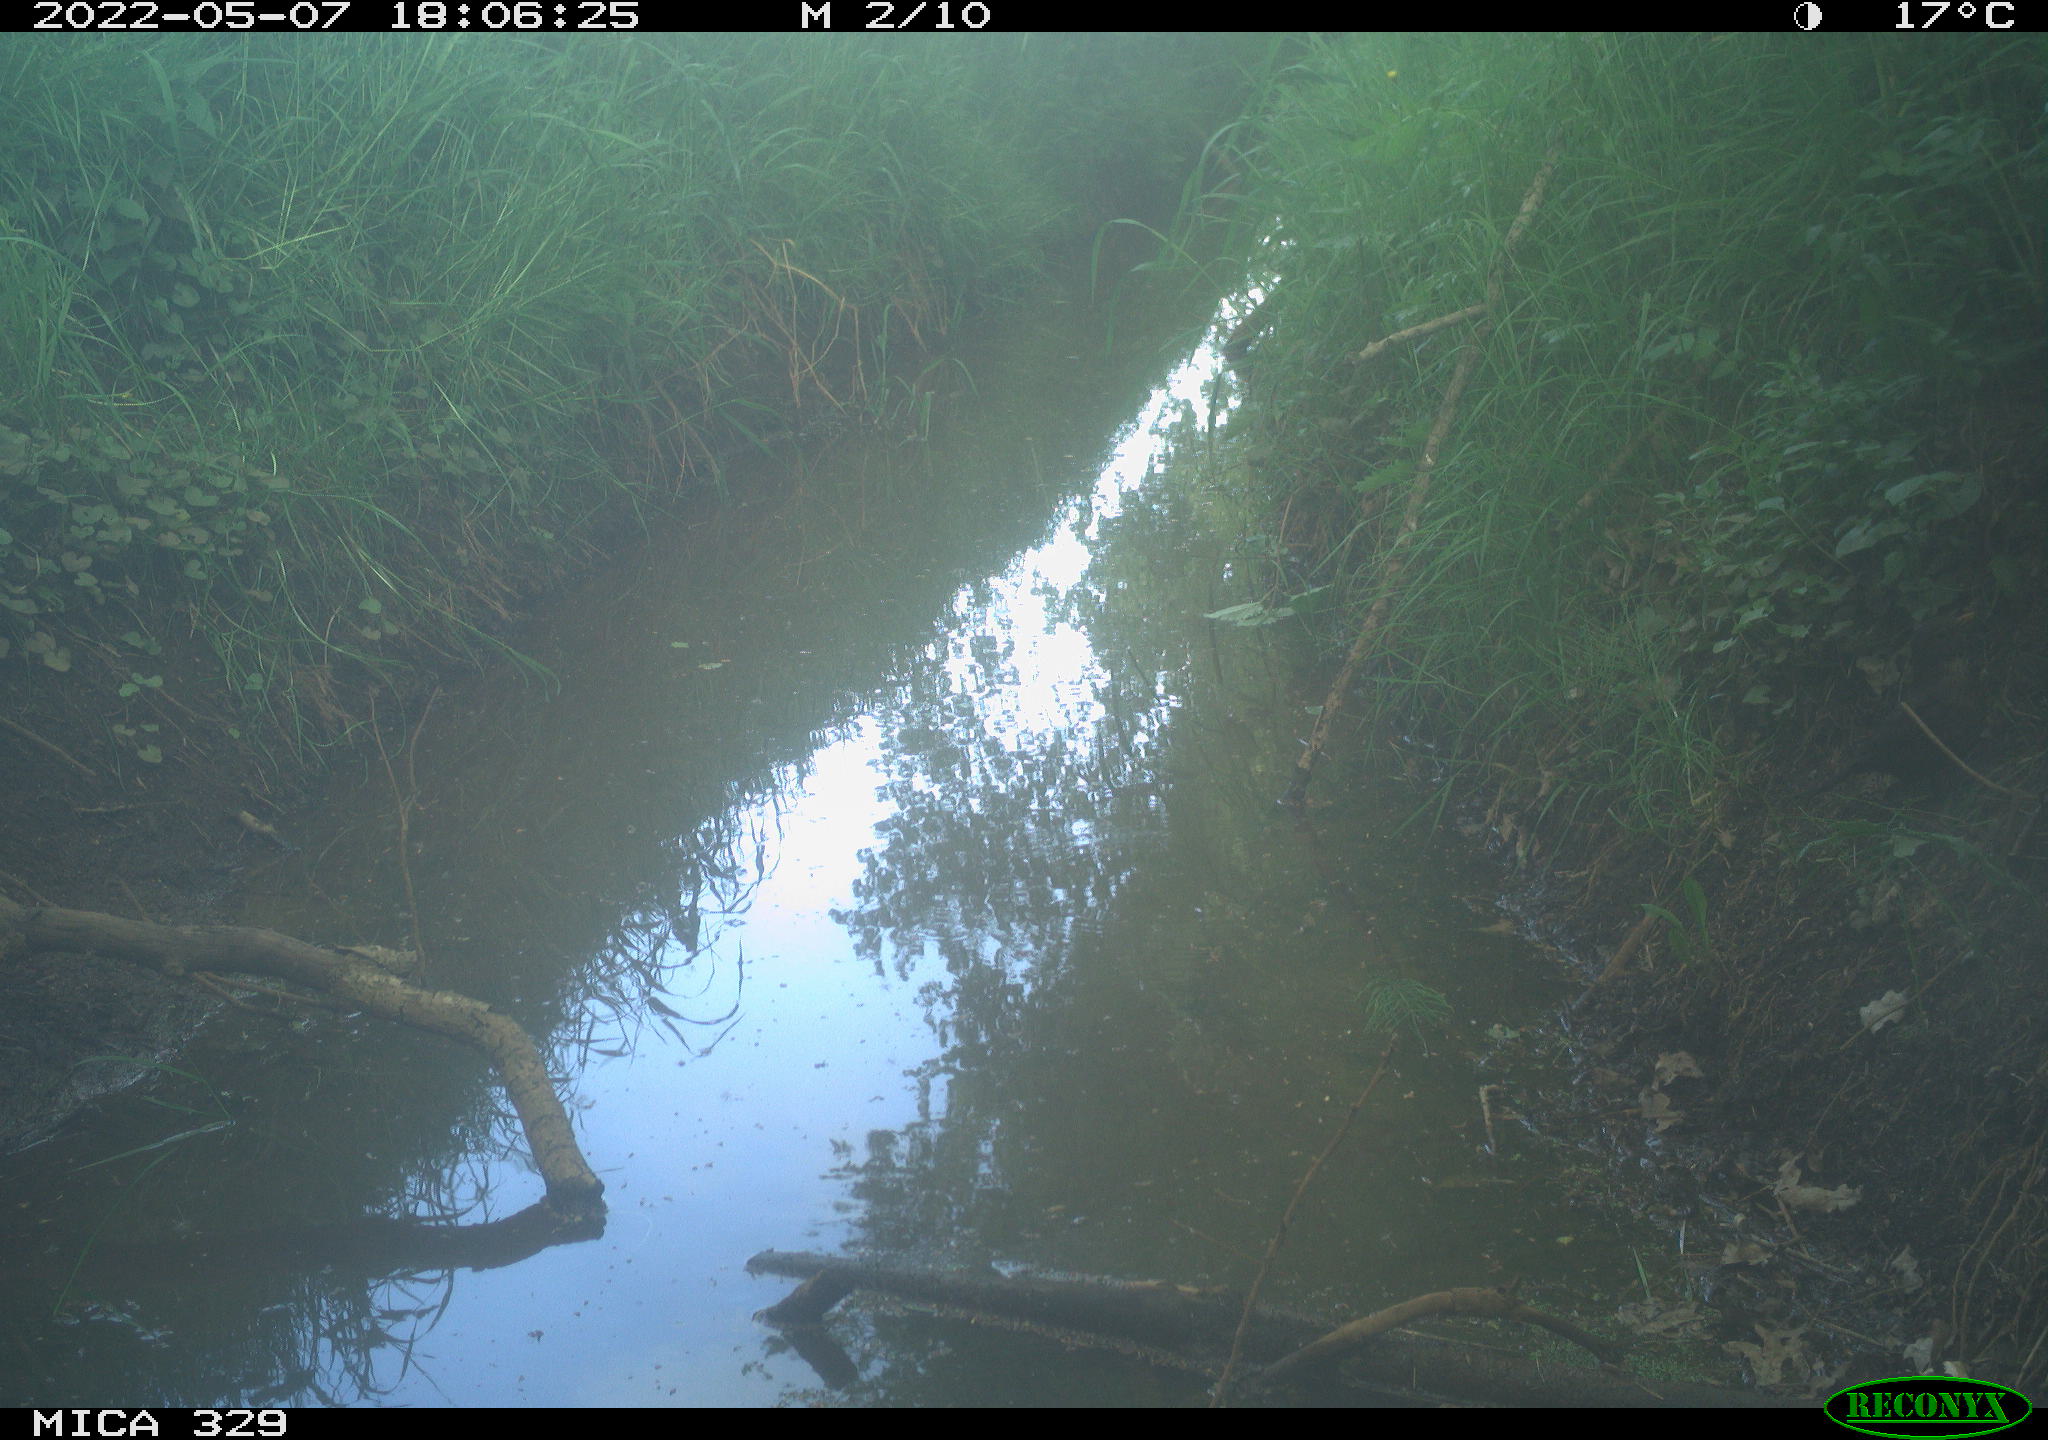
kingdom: Animalia
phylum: Chordata
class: Aves
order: Passeriformes
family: Turdidae
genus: Turdus
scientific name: Turdus merula
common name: Common blackbird
